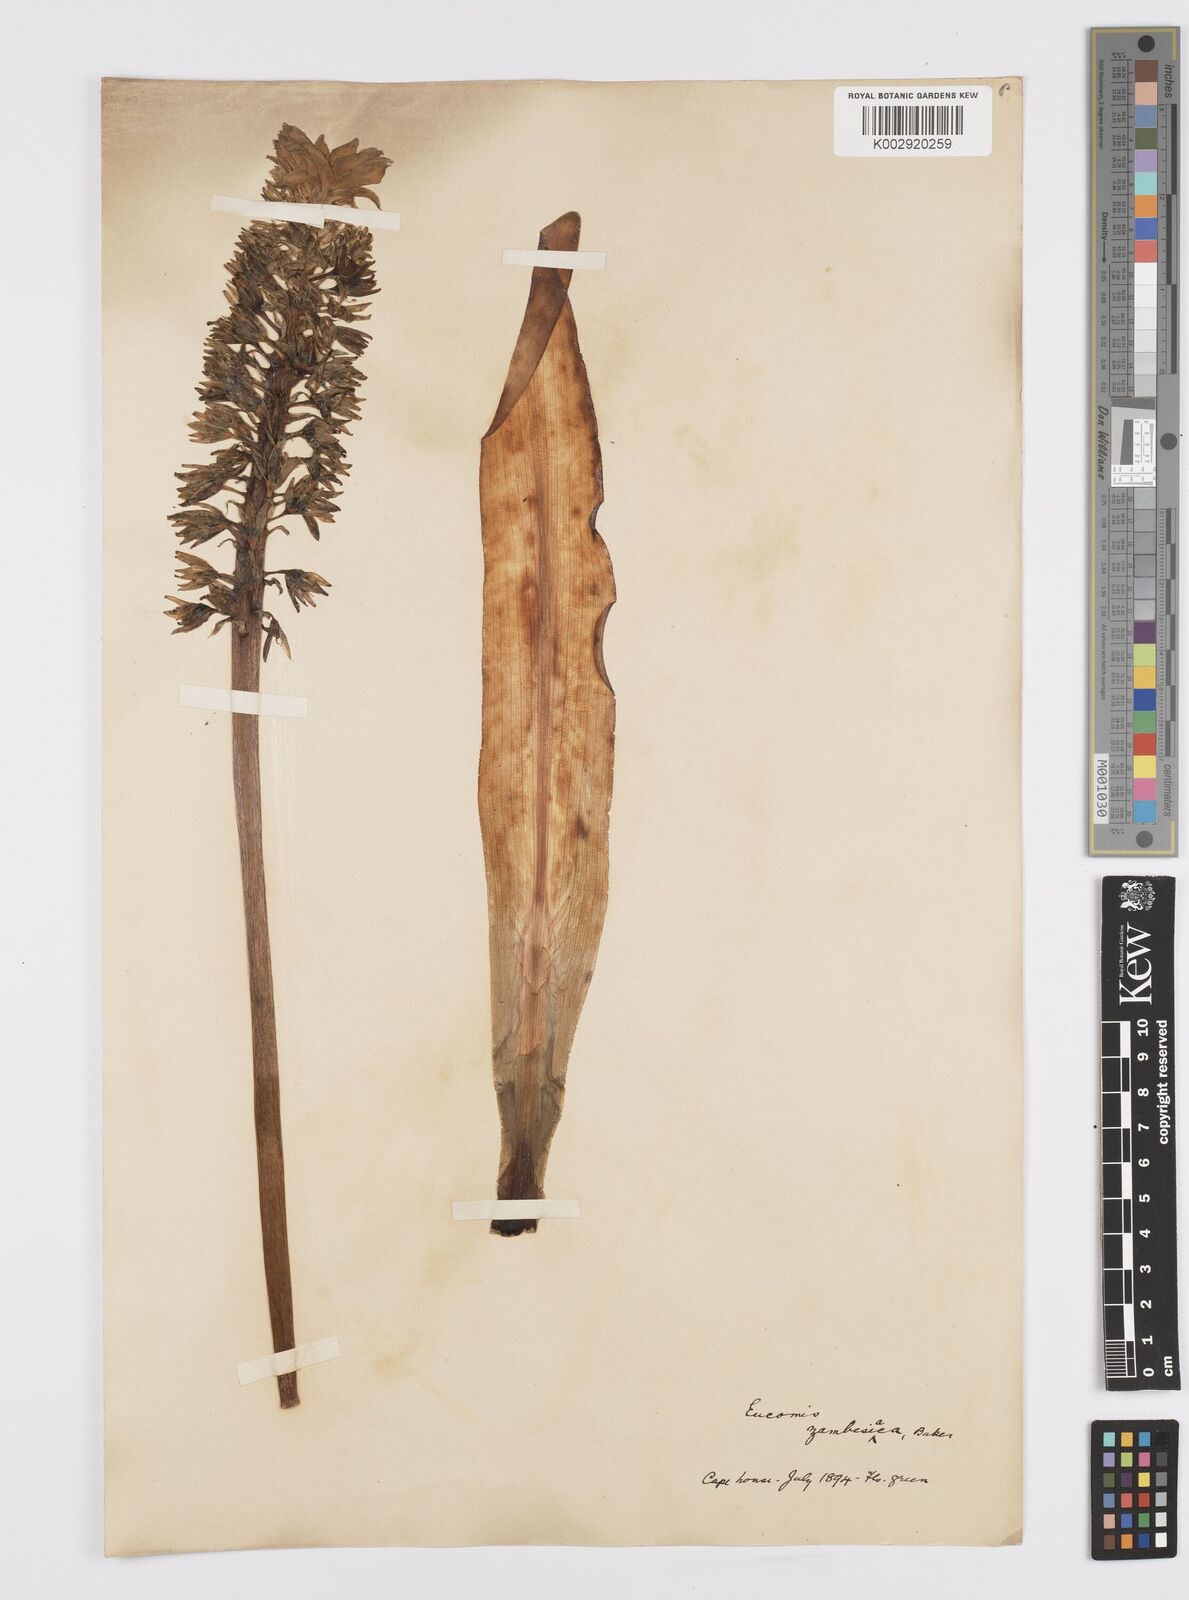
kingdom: Plantae
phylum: Tracheophyta
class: Liliopsida
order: Asparagales
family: Asparagaceae
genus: Eucomis
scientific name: Eucomis zambesiaca
